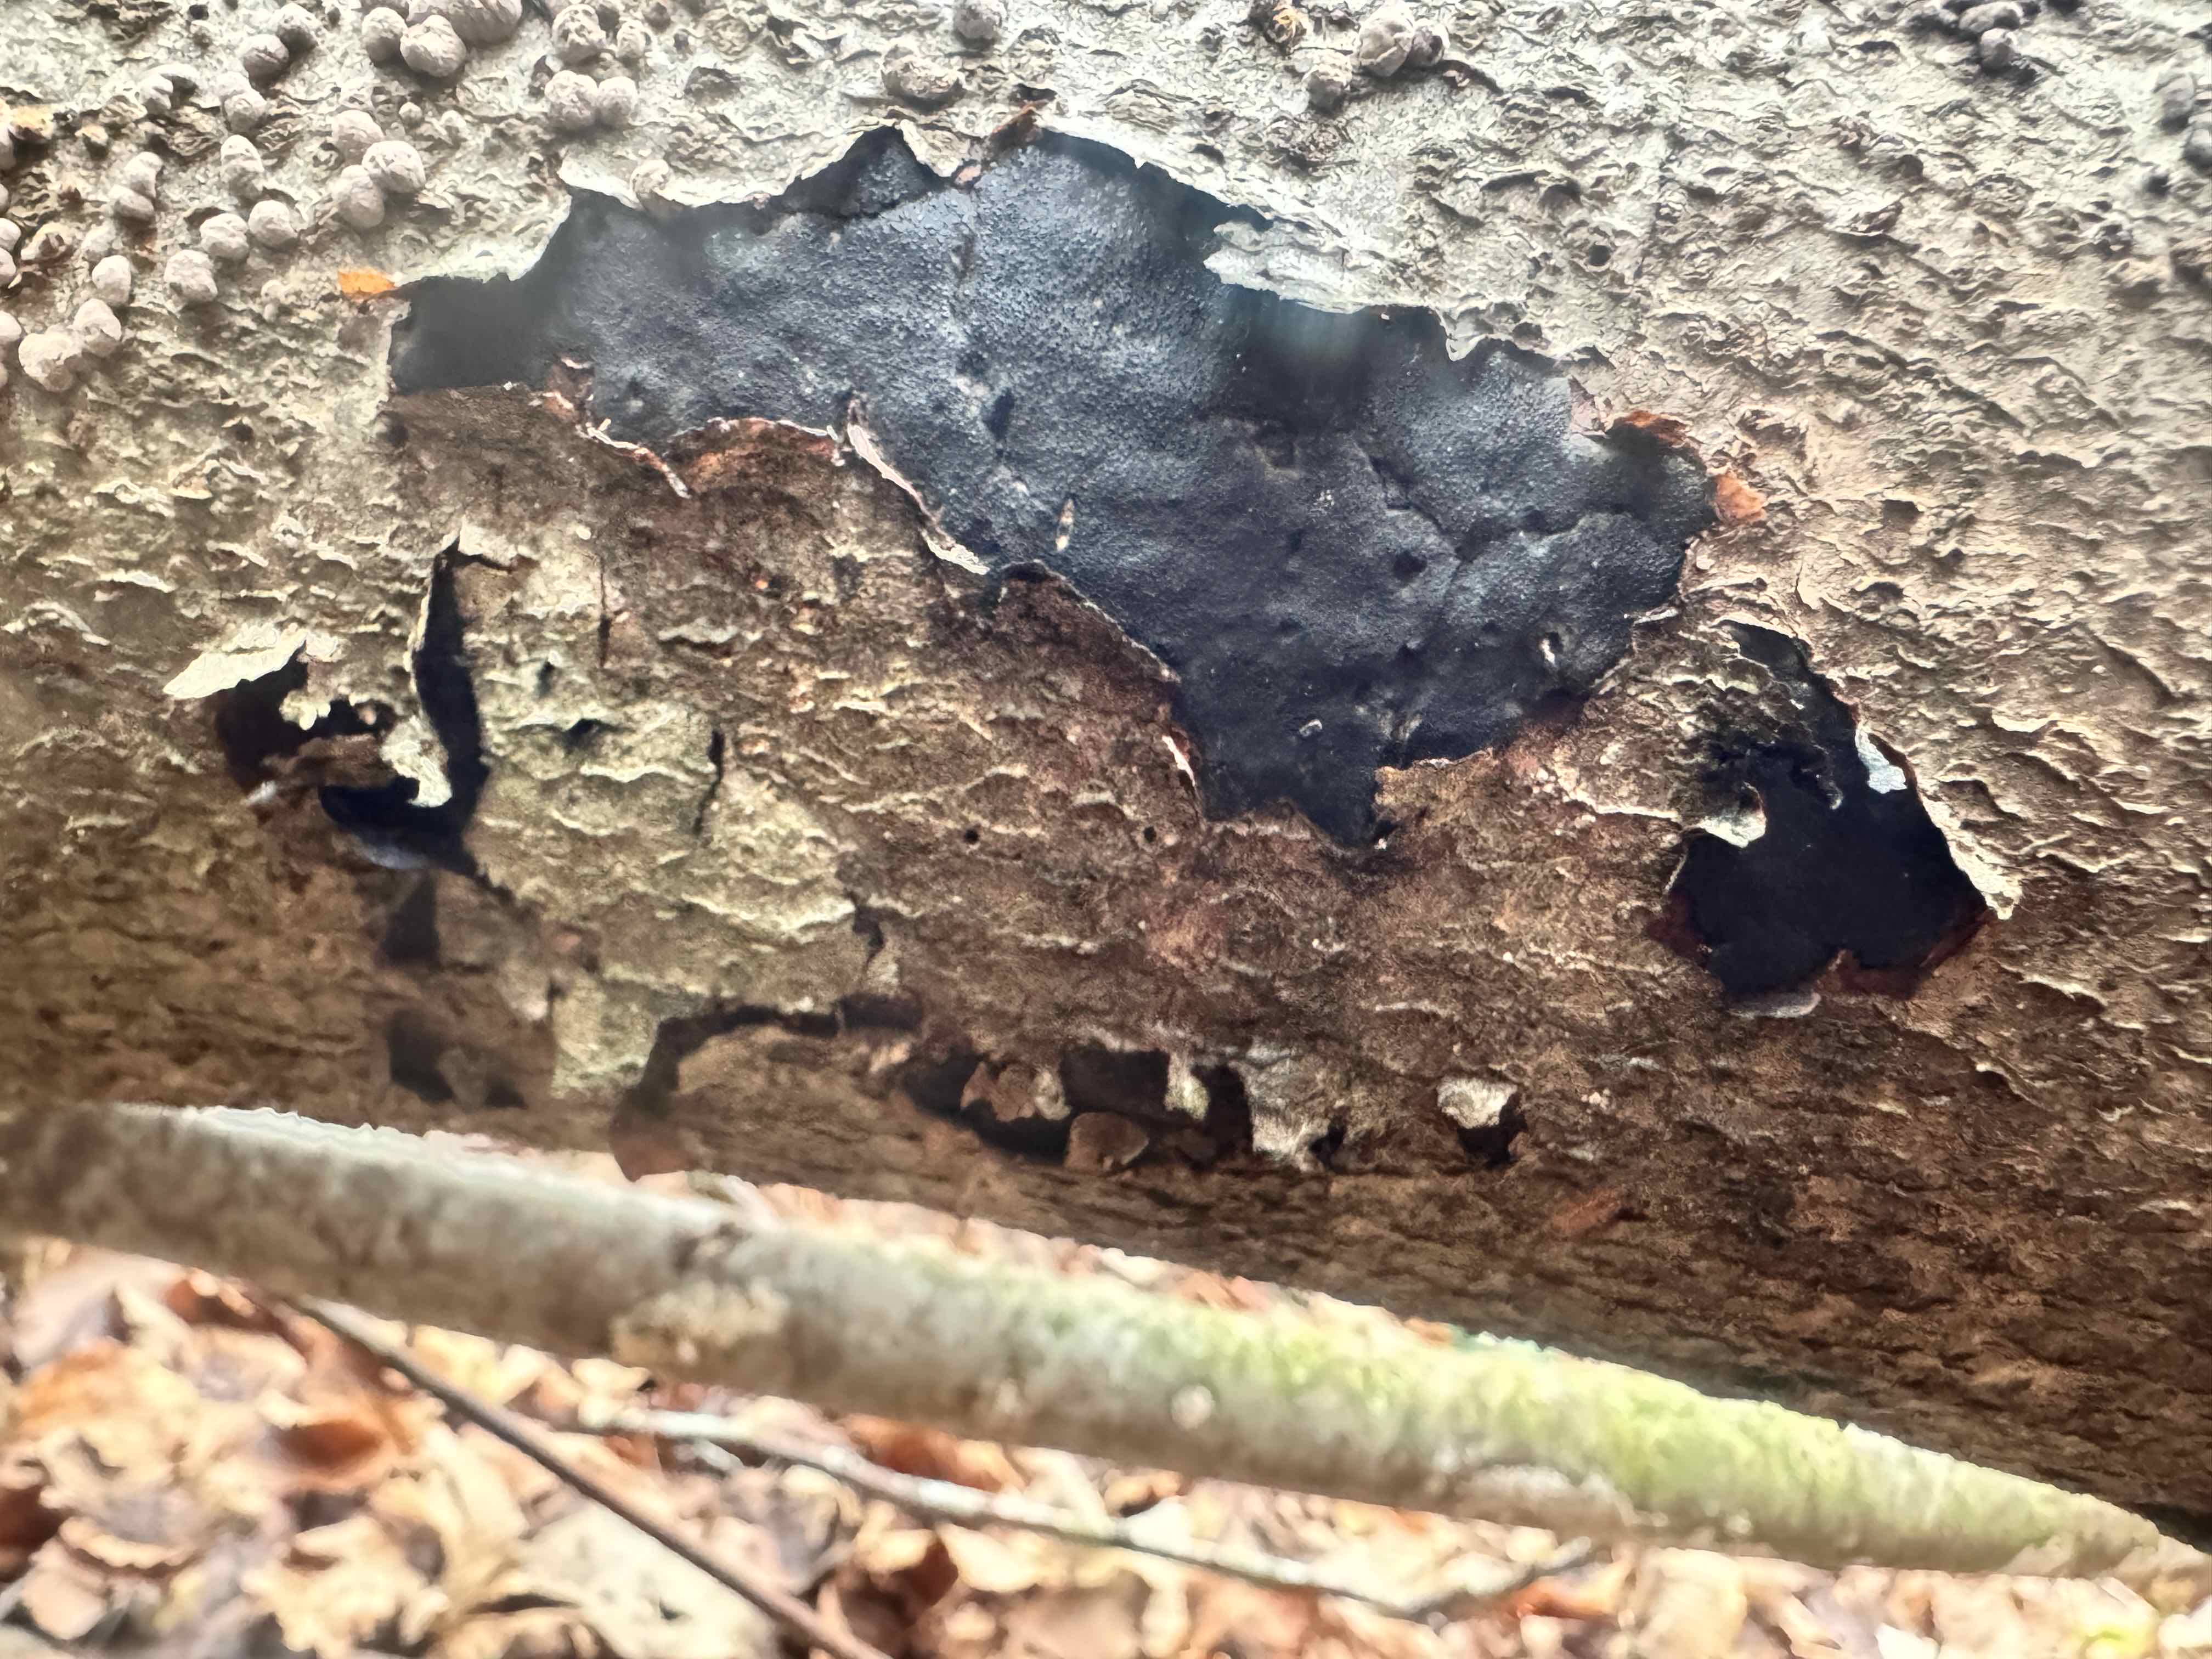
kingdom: Fungi
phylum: Ascomycota
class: Sordariomycetes
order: Boliniales
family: Boliniaceae
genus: Camarops
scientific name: Camarops polysperma
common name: elle-kulsnegl
